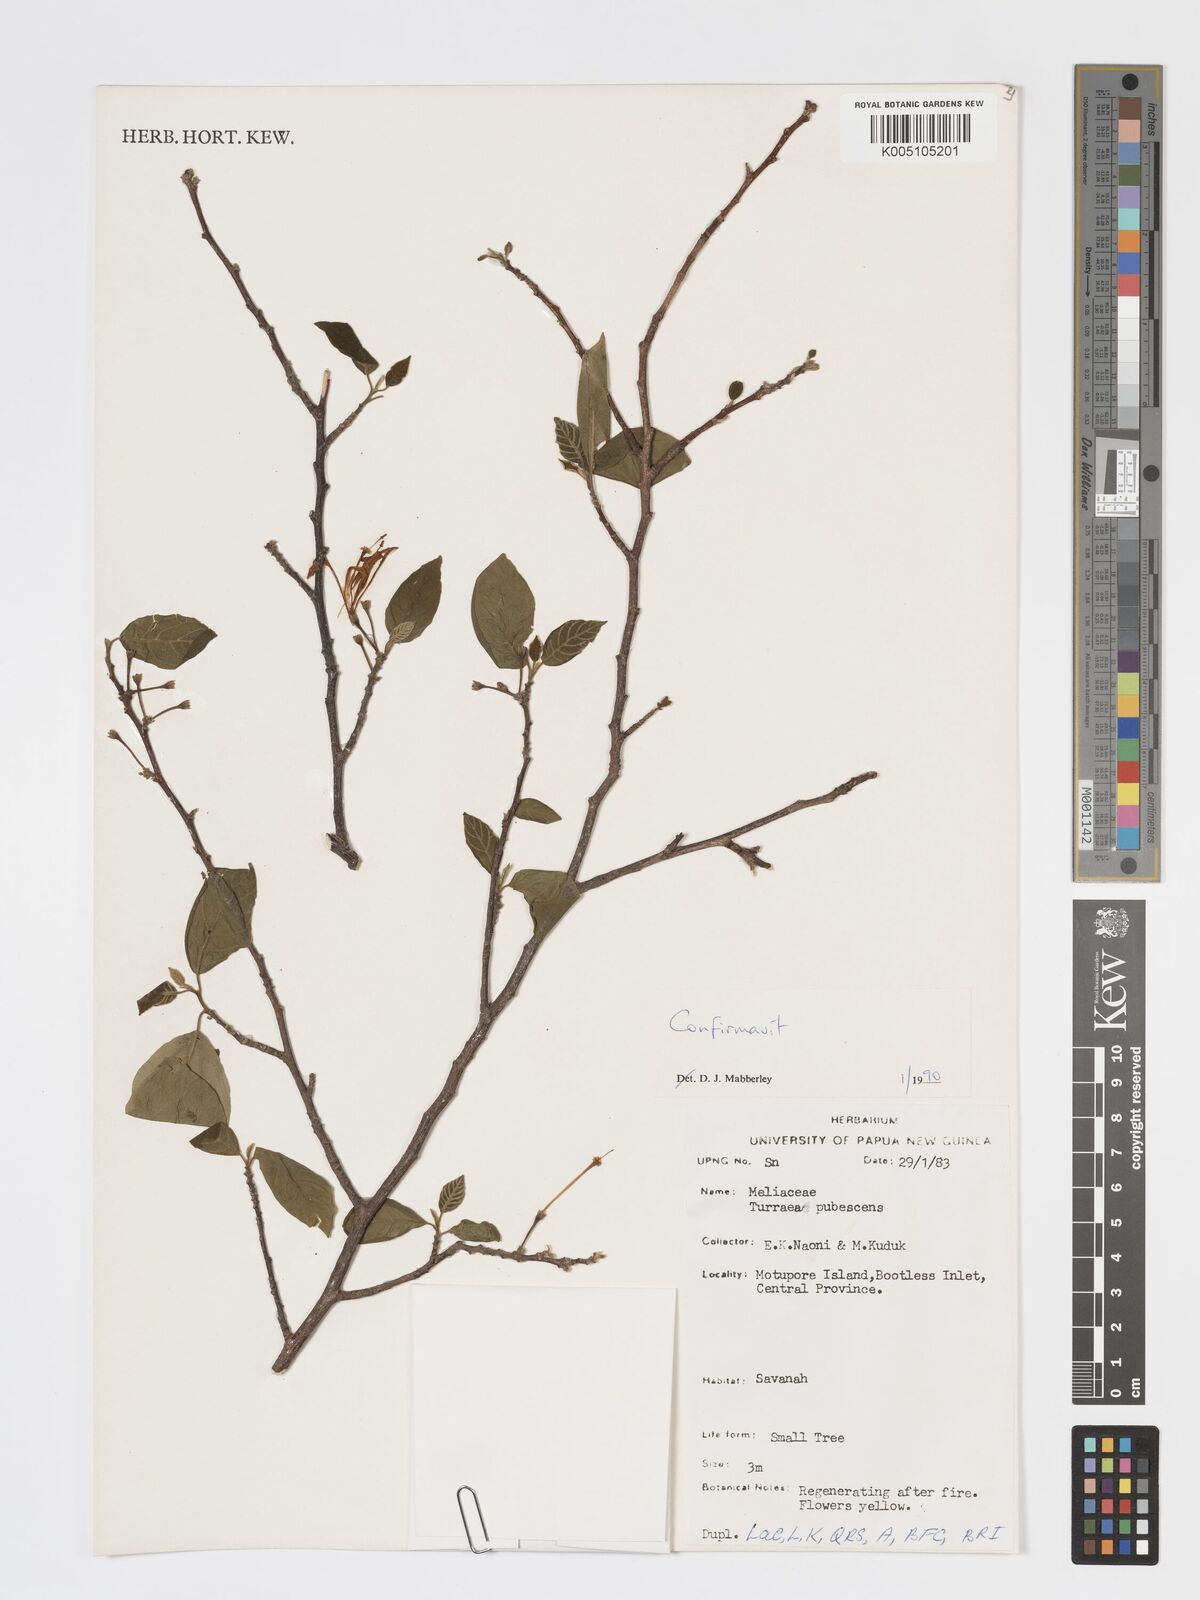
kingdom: Plantae
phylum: Tracheophyta
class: Magnoliopsida
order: Sapindales
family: Meliaceae
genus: Turraea
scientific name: Turraea
